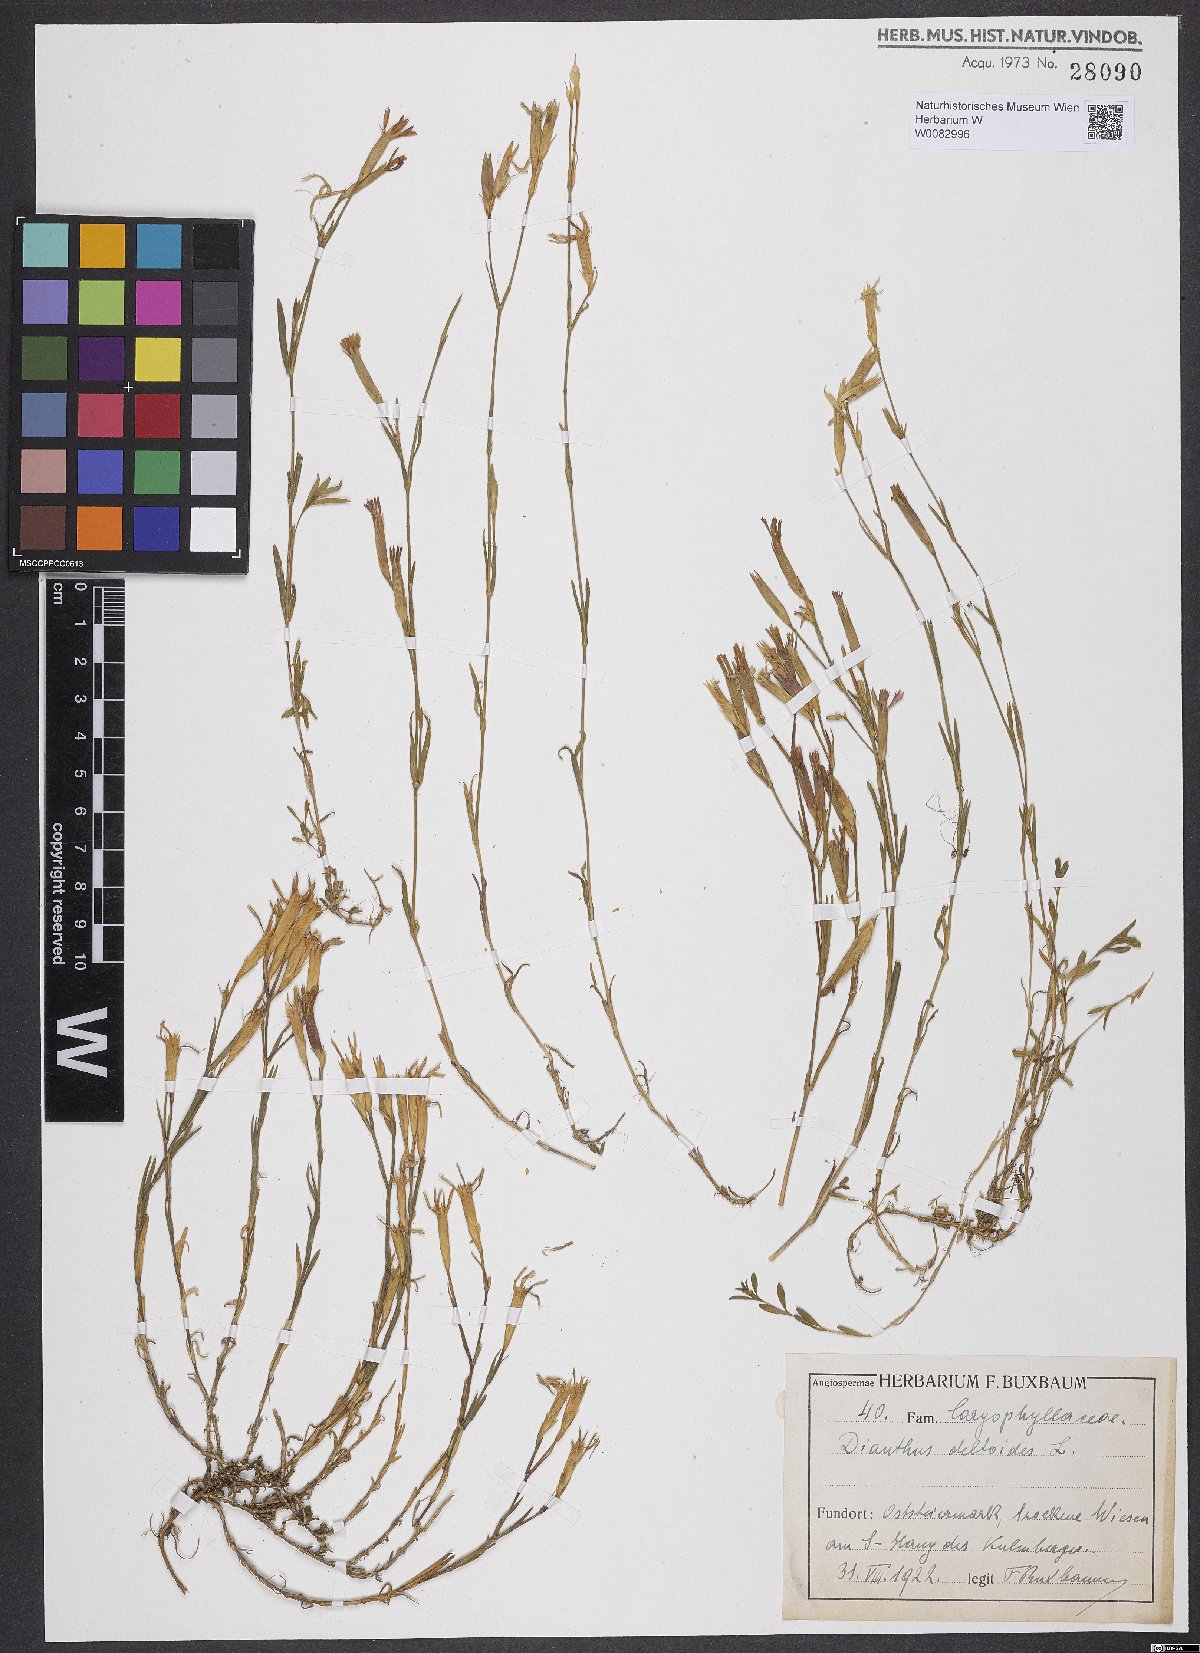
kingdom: Plantae
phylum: Tracheophyta
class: Magnoliopsida
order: Caryophyllales
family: Caryophyllaceae
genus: Dianthus
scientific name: Dianthus deltoides
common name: Maiden pink
